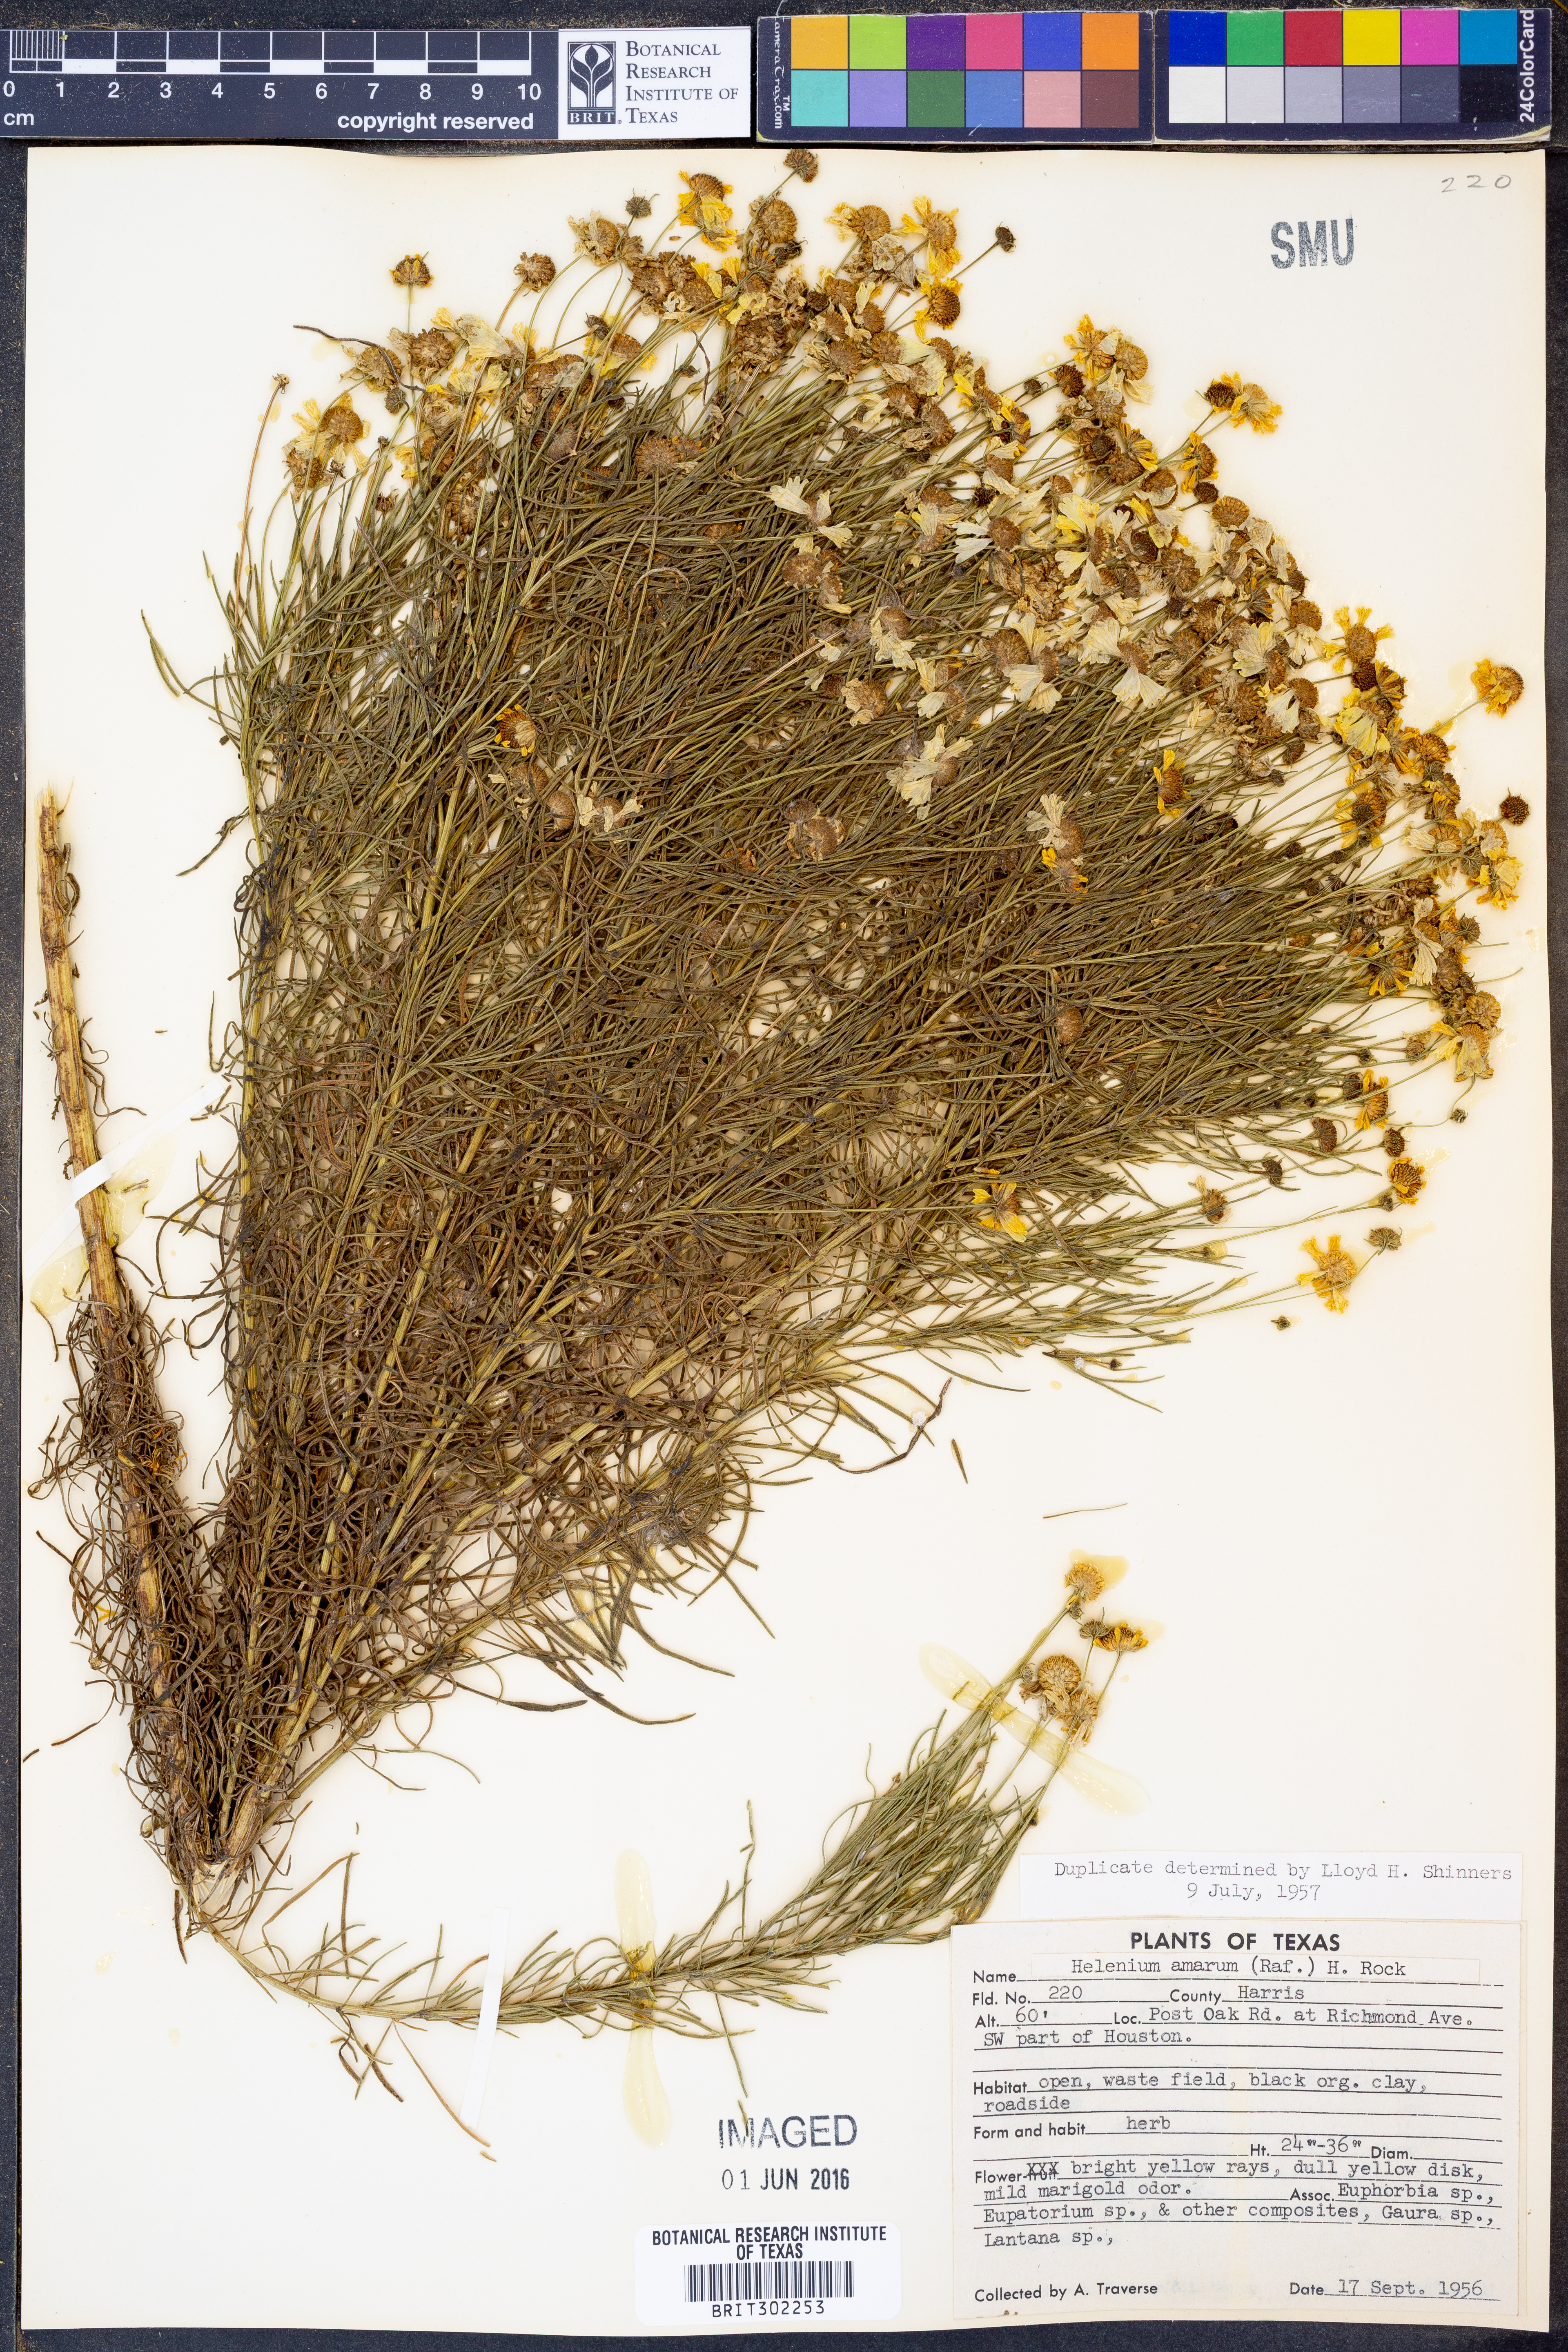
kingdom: Plantae
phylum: Tracheophyta
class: Magnoliopsida
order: Asterales
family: Asteraceae
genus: Helenium
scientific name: Helenium amarum
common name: Bitter sneezeweed
